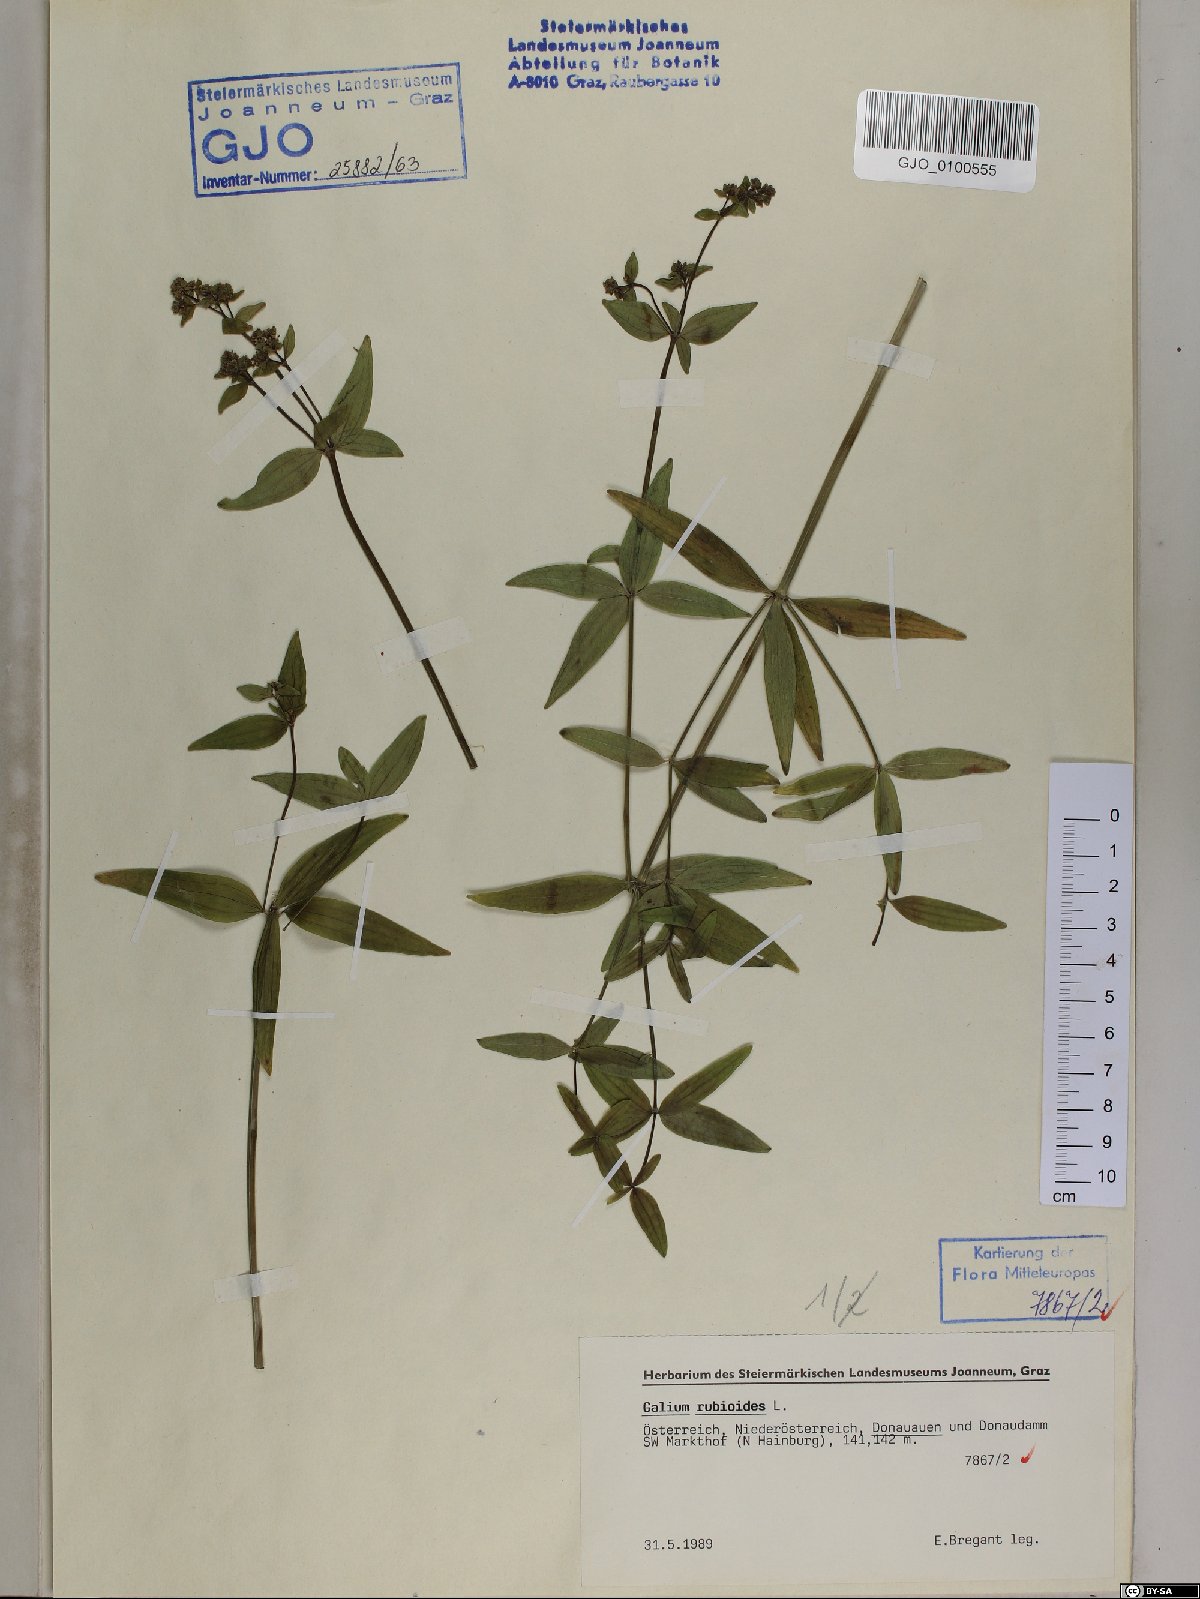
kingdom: Plantae
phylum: Tracheophyta
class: Magnoliopsida
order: Gentianales
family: Rubiaceae
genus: Galium
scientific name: Galium rubioides
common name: European bedstraw
